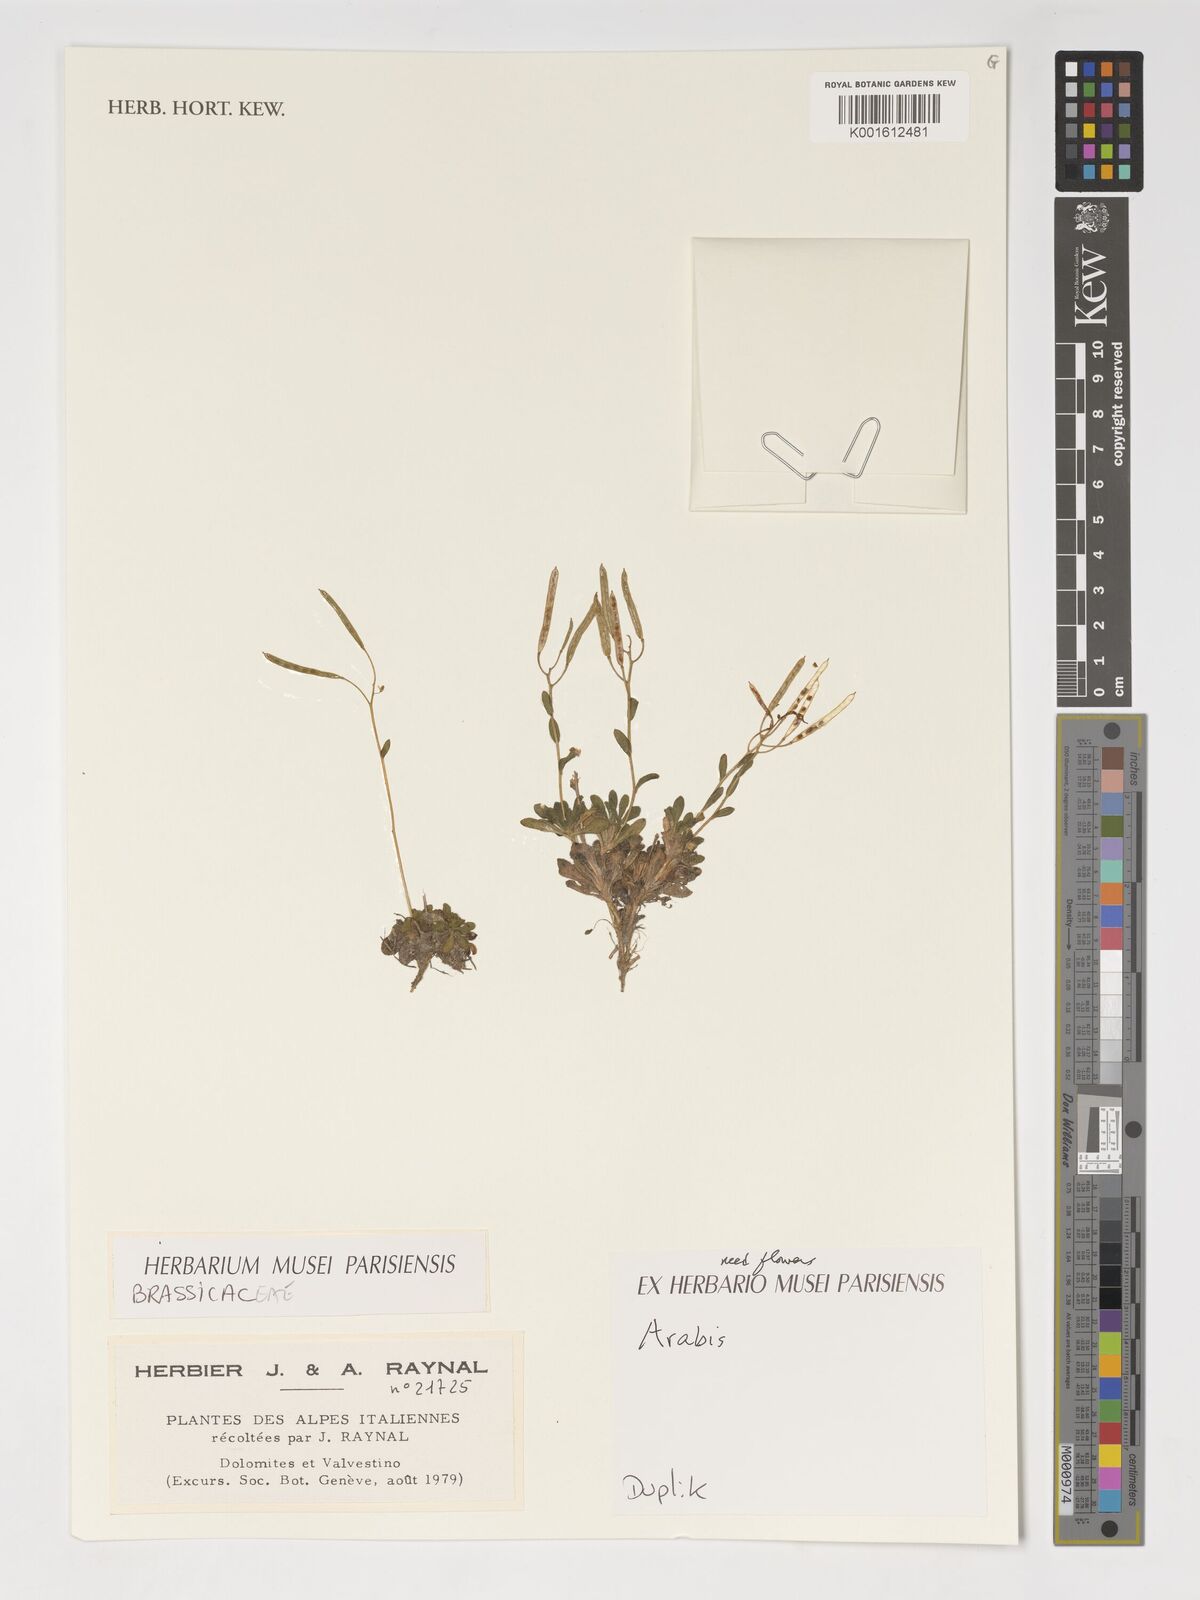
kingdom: Plantae
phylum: Tracheophyta
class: Magnoliopsida
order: Brassicales
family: Brassicaceae
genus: Arabis
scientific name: Arabis
